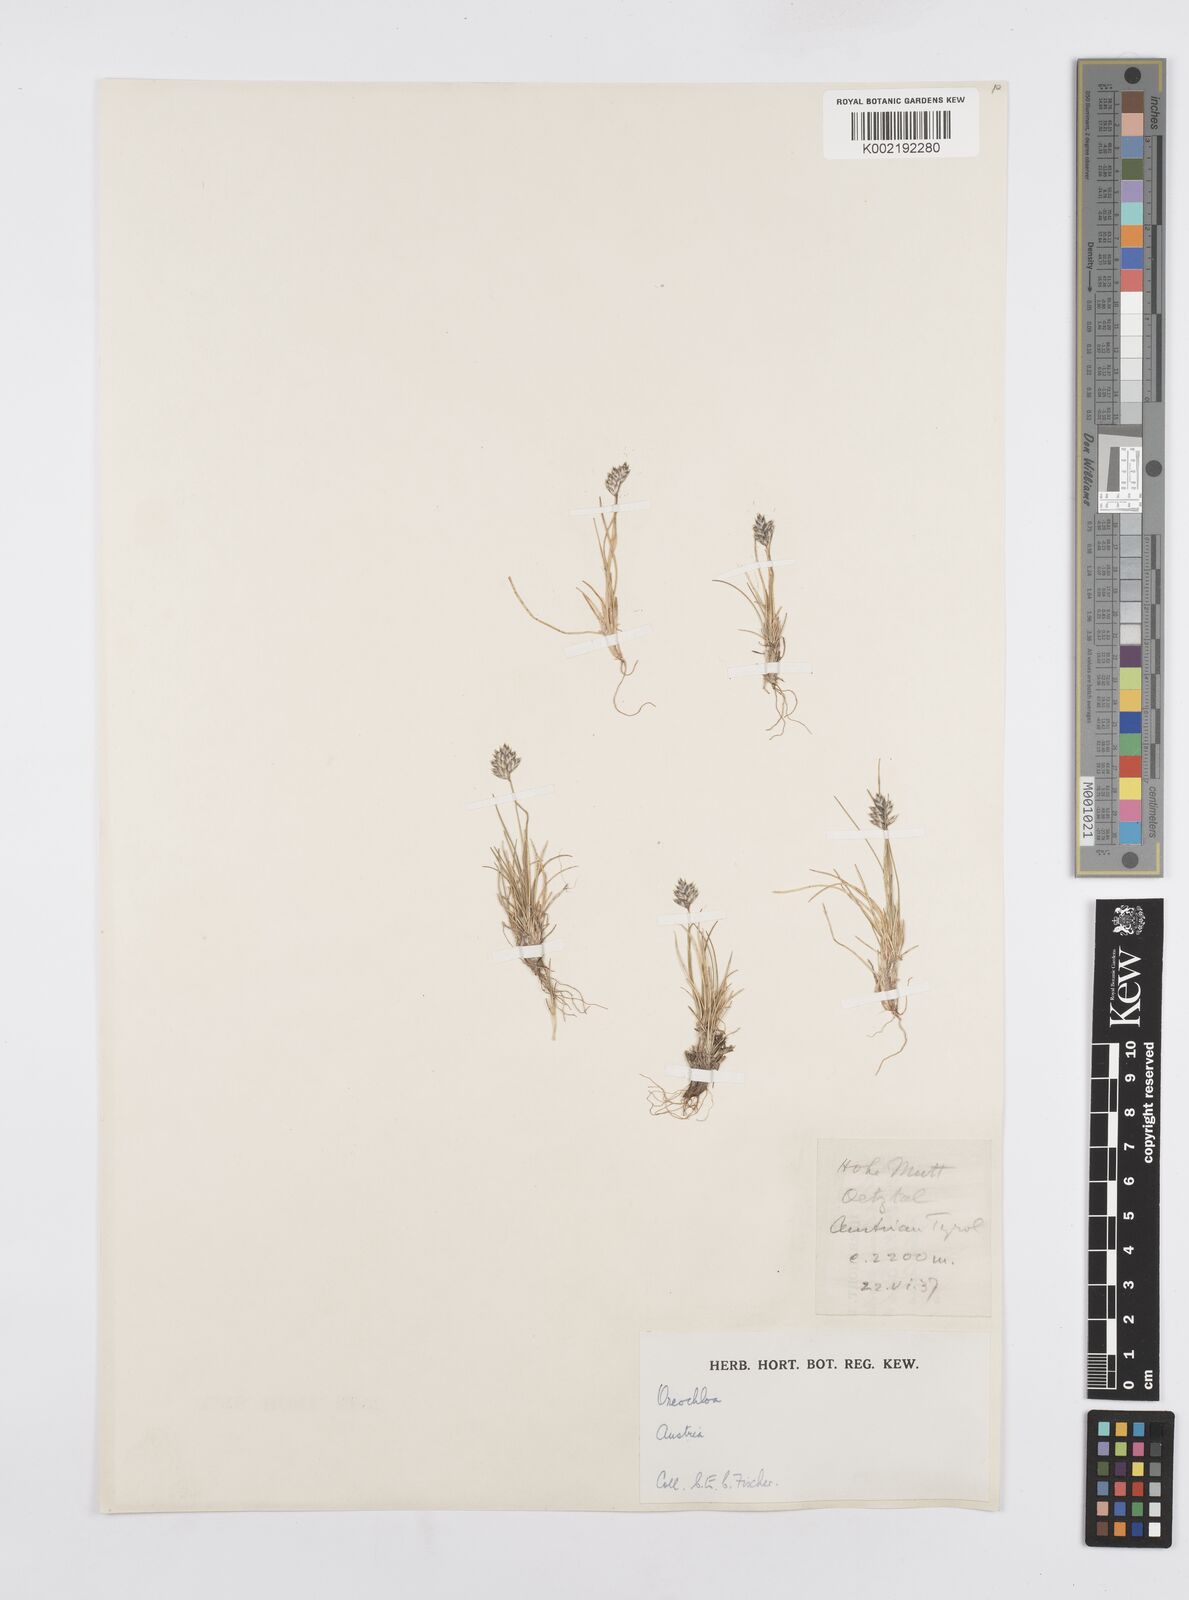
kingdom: Plantae
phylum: Tracheophyta
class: Liliopsida
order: Poales
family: Poaceae
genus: Oreochloa
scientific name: Oreochloa disticha
